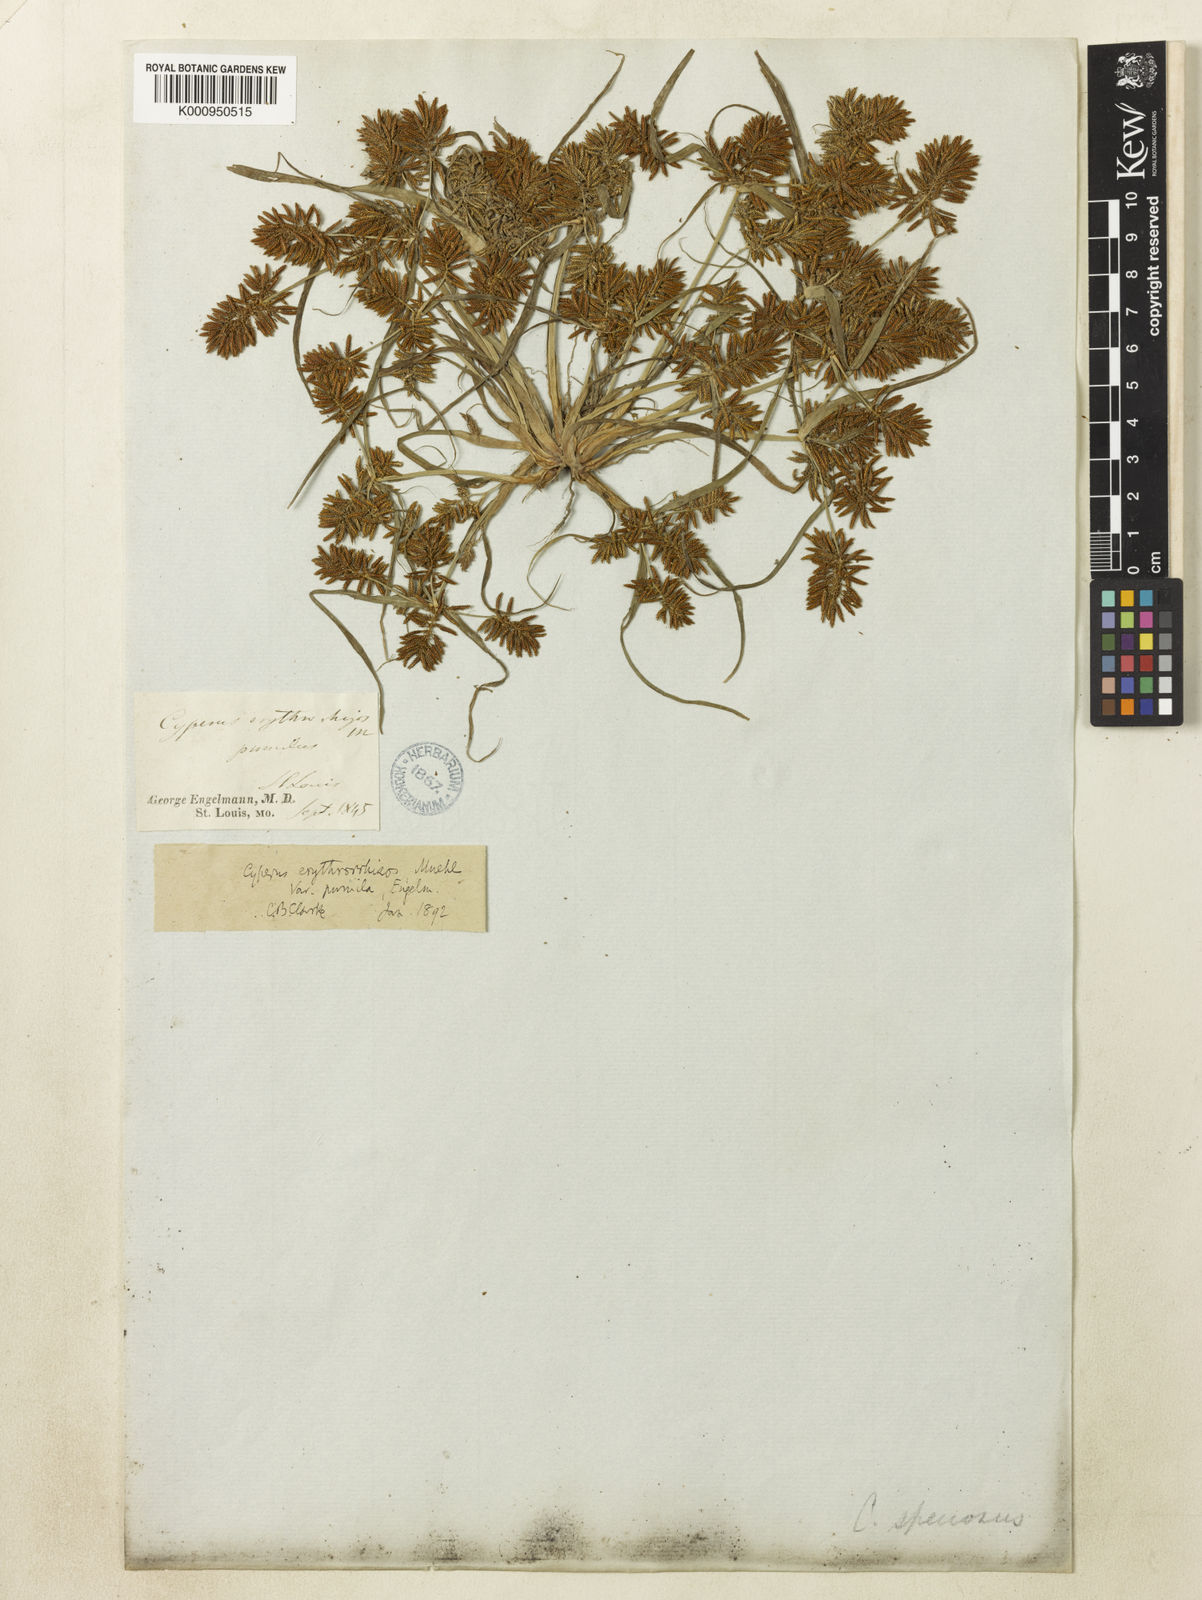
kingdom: Plantae
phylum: Tracheophyta
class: Liliopsida
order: Poales
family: Cyperaceae
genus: Cyperus
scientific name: Cyperus erythrorhizos
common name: Red-root flat sedge
